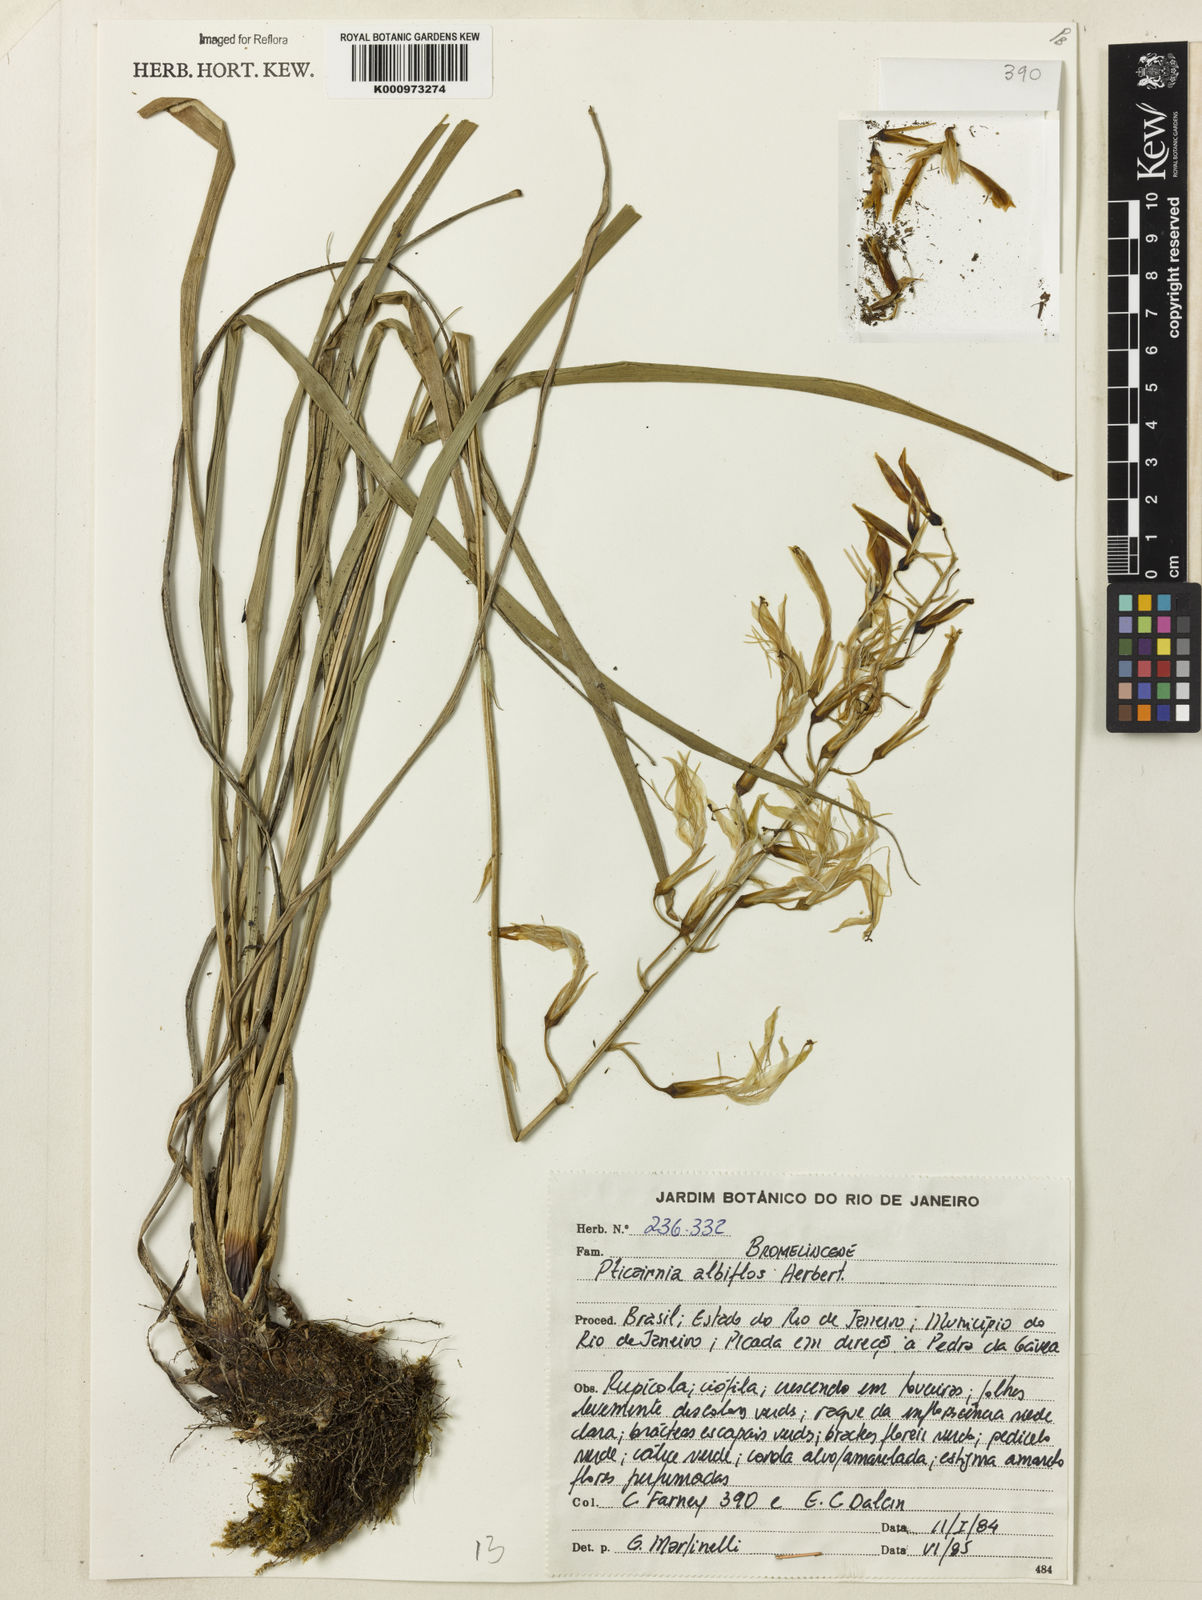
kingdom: Plantae
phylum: Tracheophyta
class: Liliopsida
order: Poales
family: Bromeliaceae
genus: Pitcairnia
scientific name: Pitcairnia albiflos
